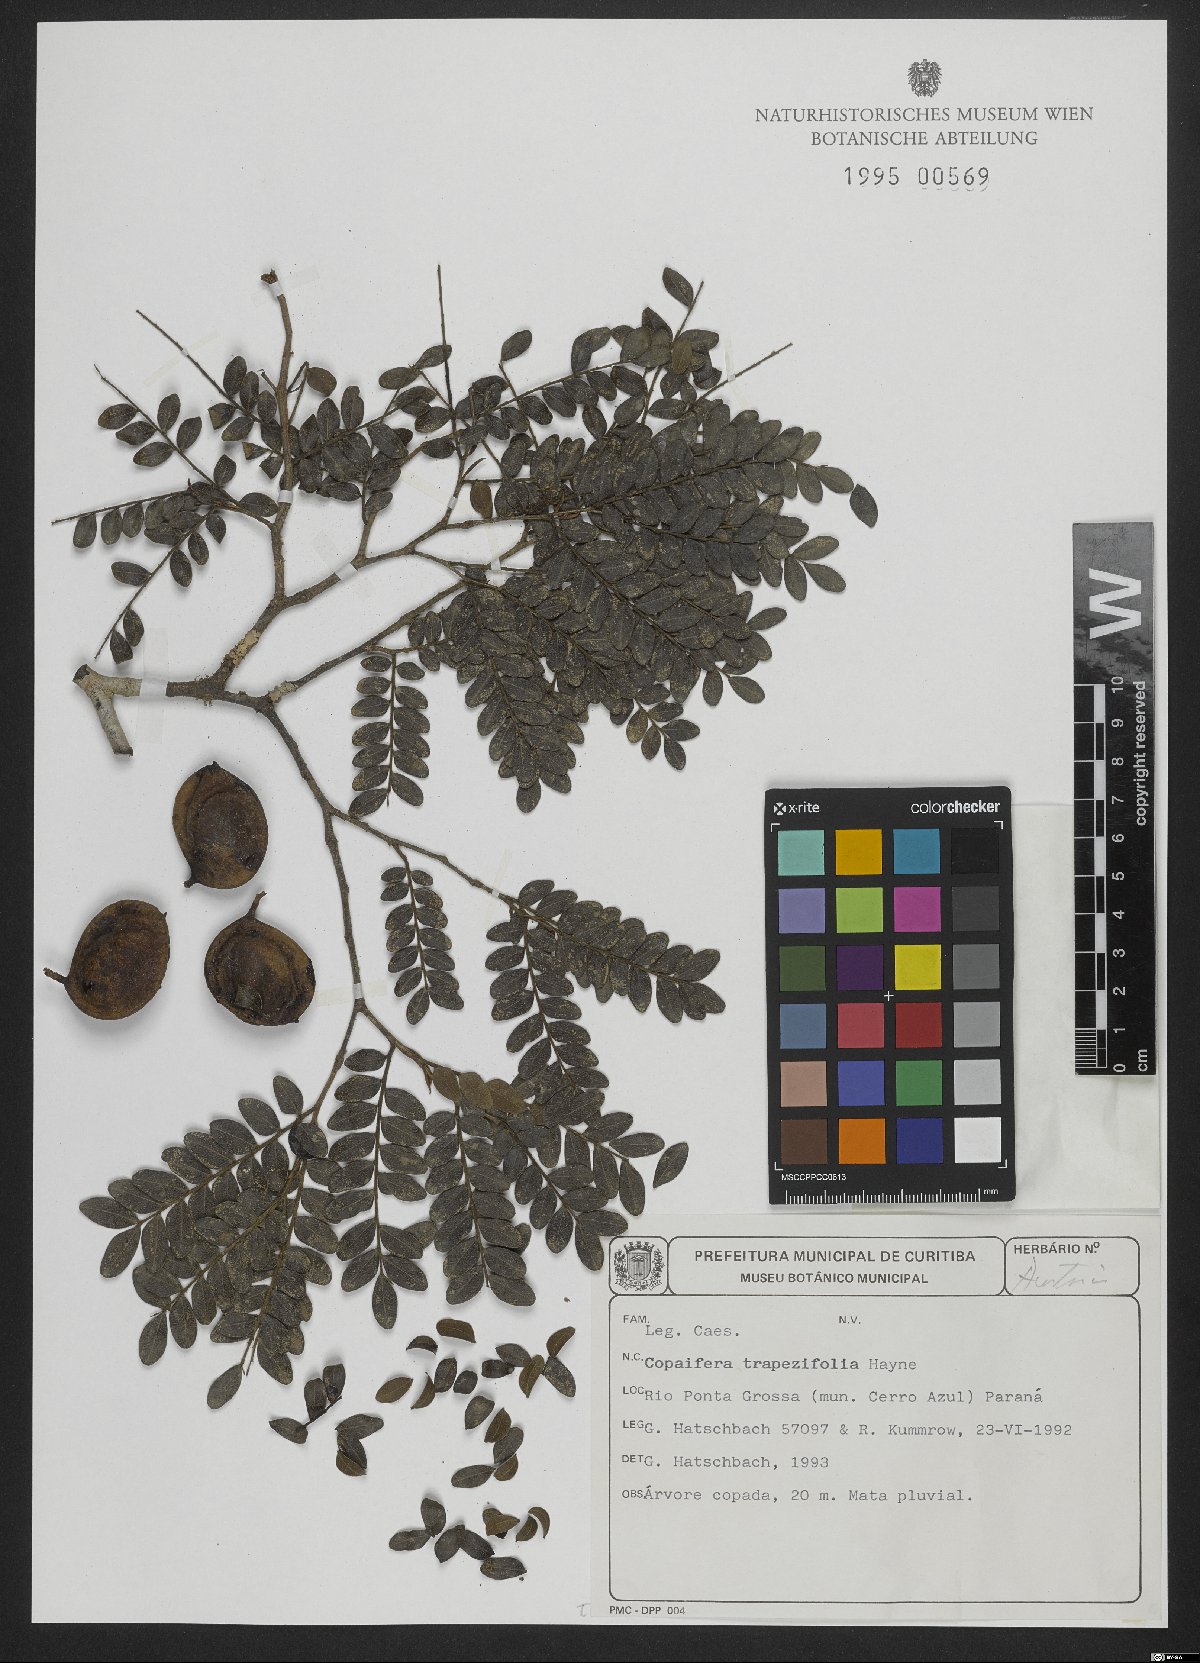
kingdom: Plantae
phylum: Tracheophyta
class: Magnoliopsida
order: Fabales
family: Fabaceae
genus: Copaifera
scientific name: Copaifera trapezifolia
